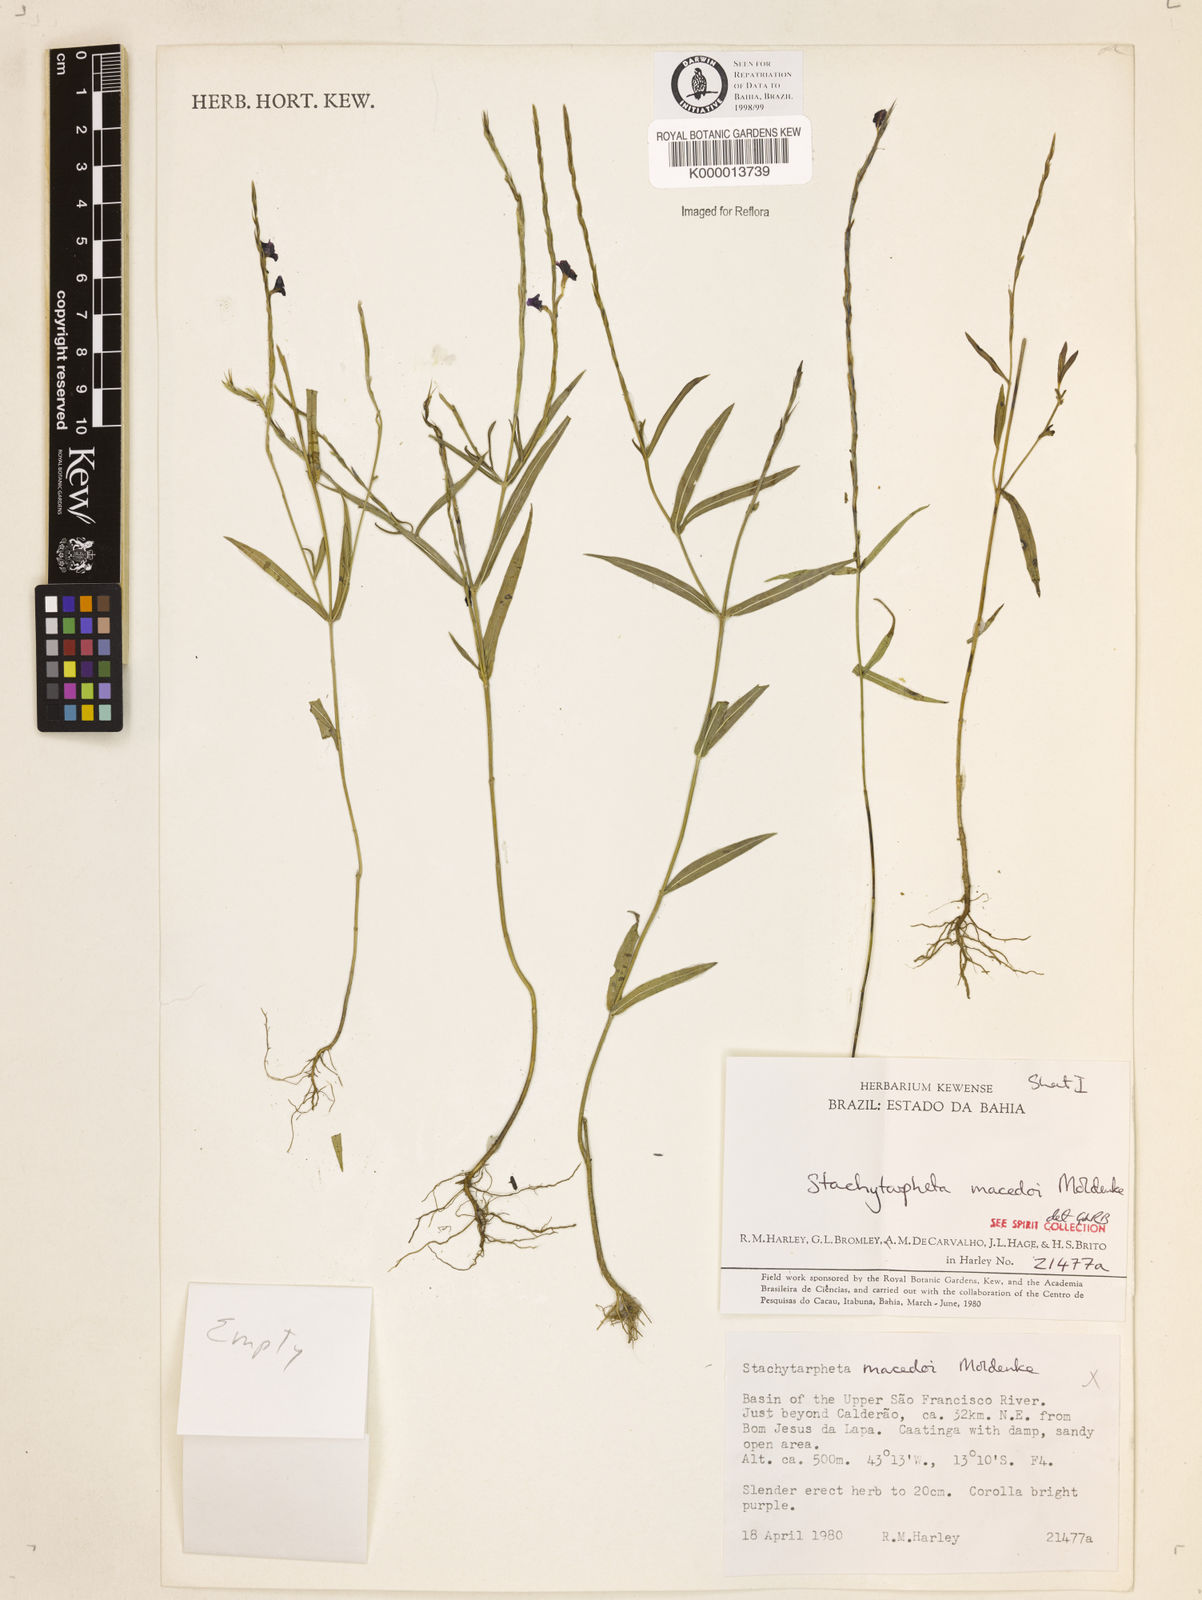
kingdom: Plantae
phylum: Tracheophyta
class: Magnoliopsida
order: Lamiales
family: Verbenaceae
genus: Stachytarpheta
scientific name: Stachytarpheta macedoi
